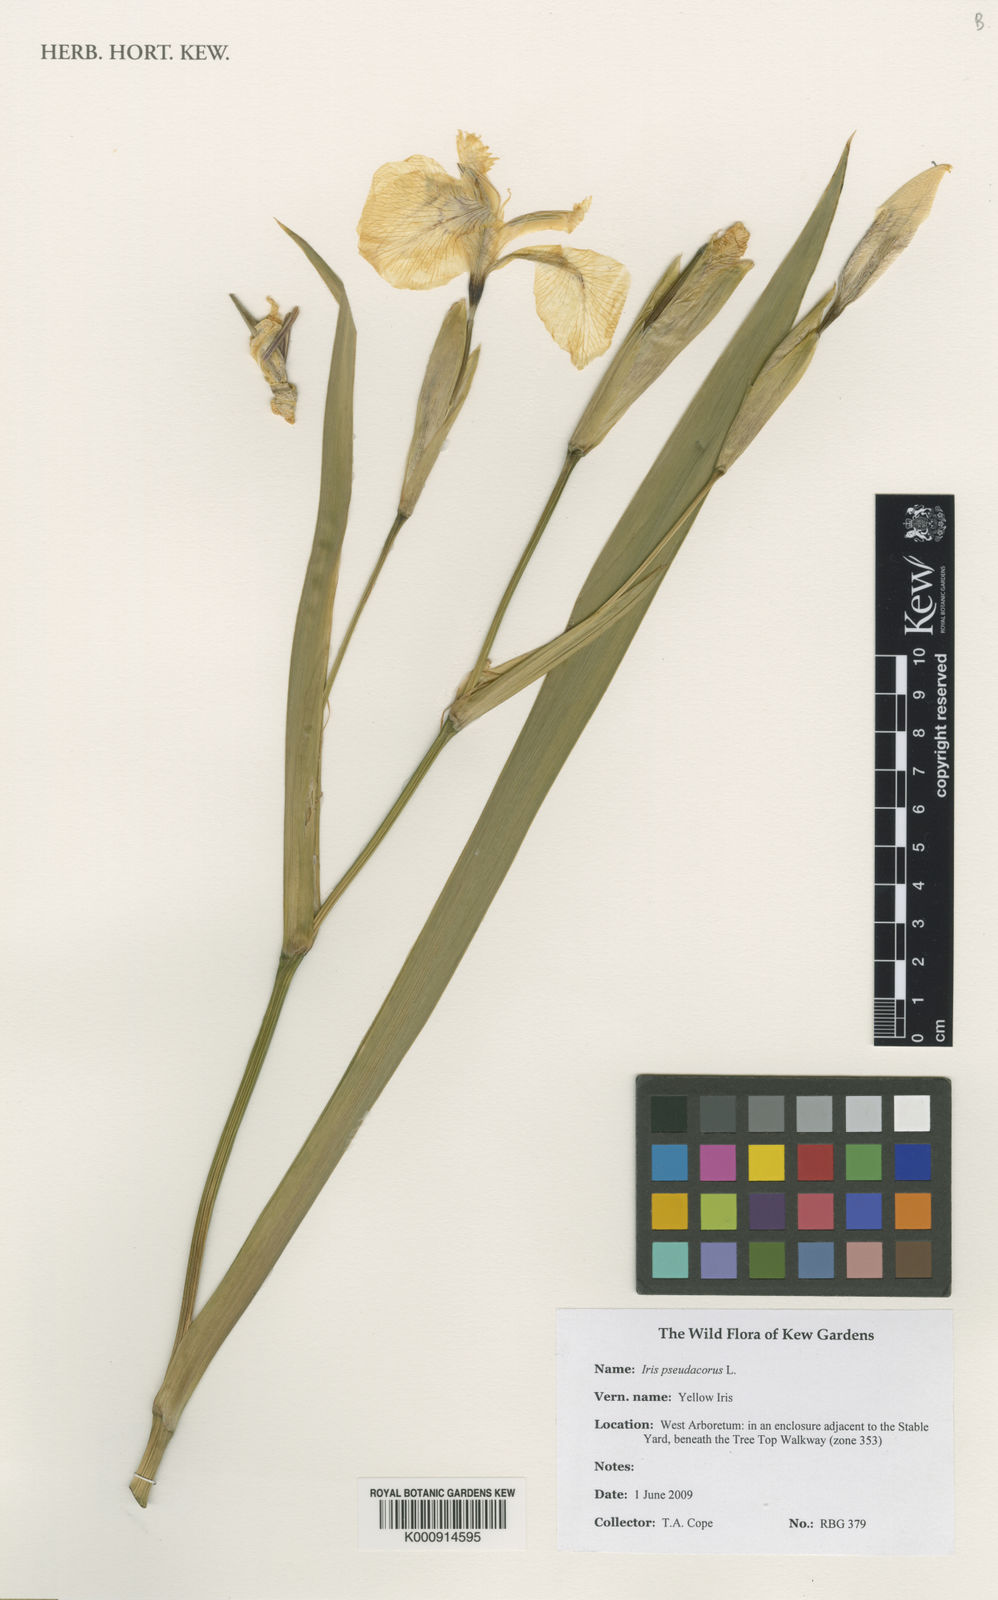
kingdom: Plantae
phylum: Tracheophyta
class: Liliopsida
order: Asparagales
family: Iridaceae
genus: Iris
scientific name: Iris pseudacorus
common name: Yellow flag
